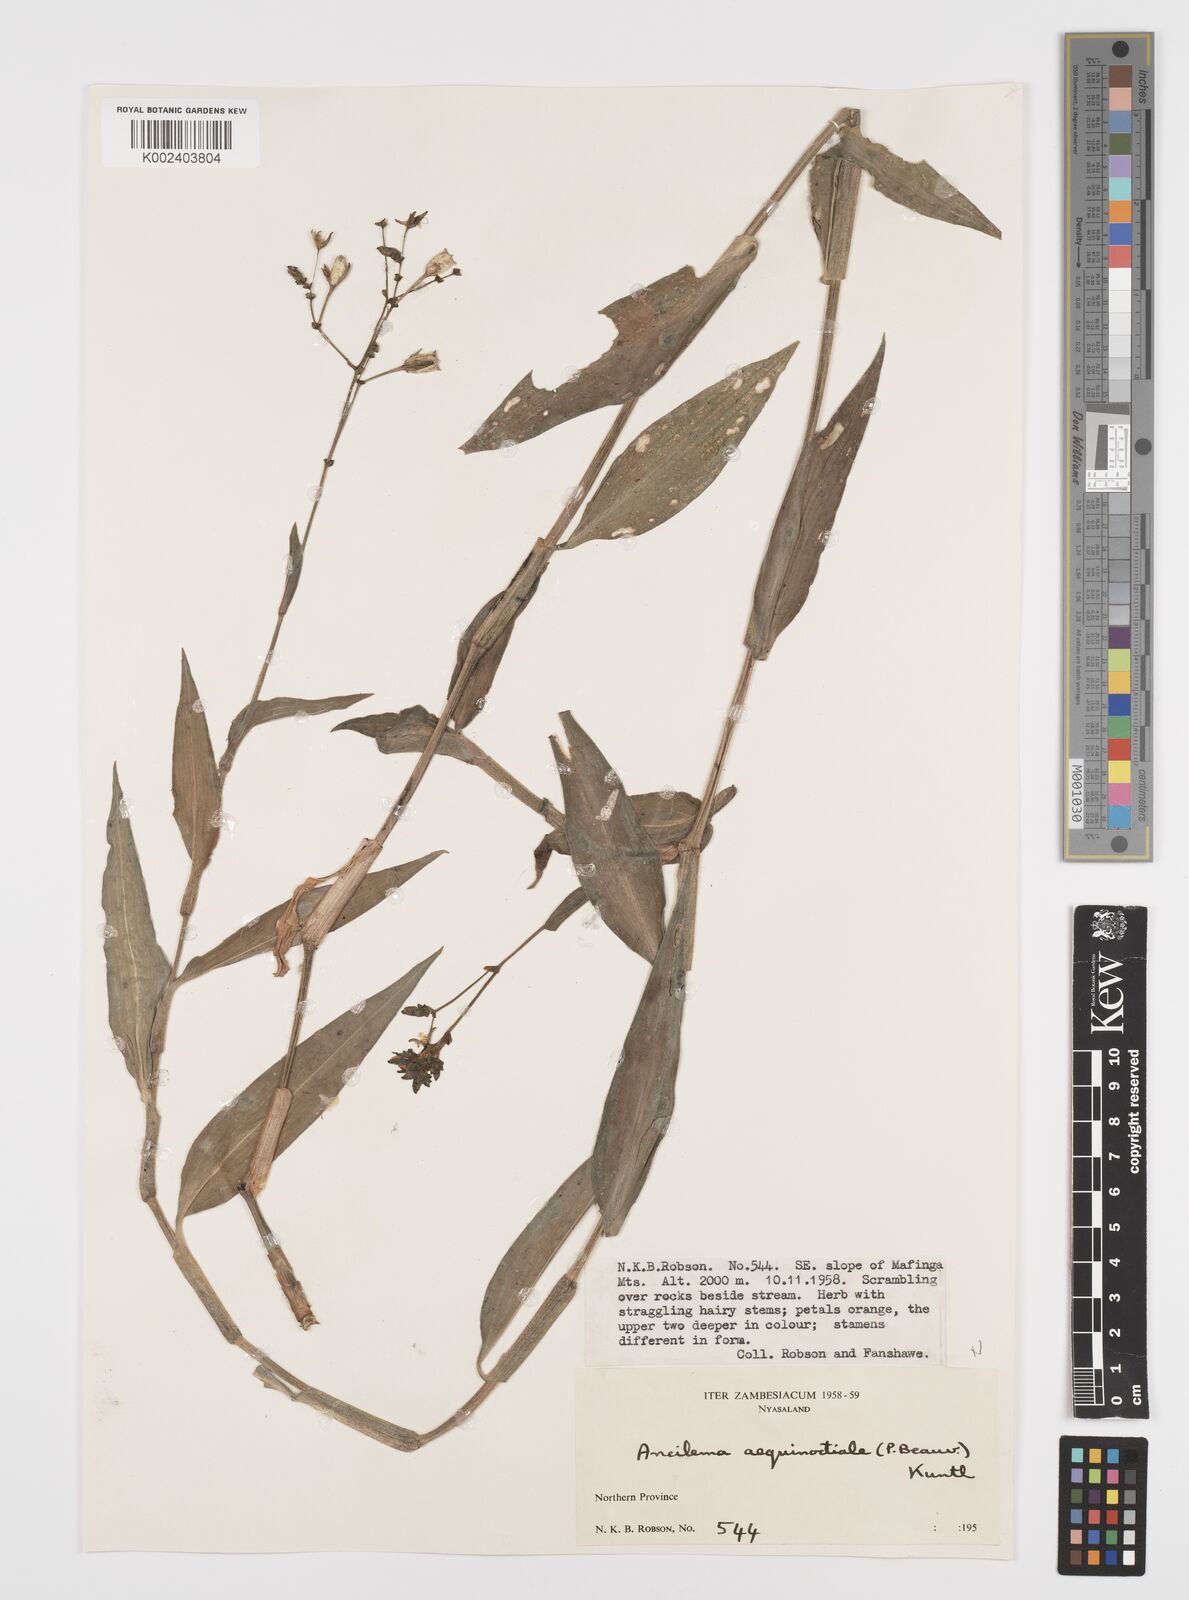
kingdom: Plantae
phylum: Tracheophyta
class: Liliopsida
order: Commelinales
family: Commelinaceae
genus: Aneilema
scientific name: Aneilema aequinoctiale
